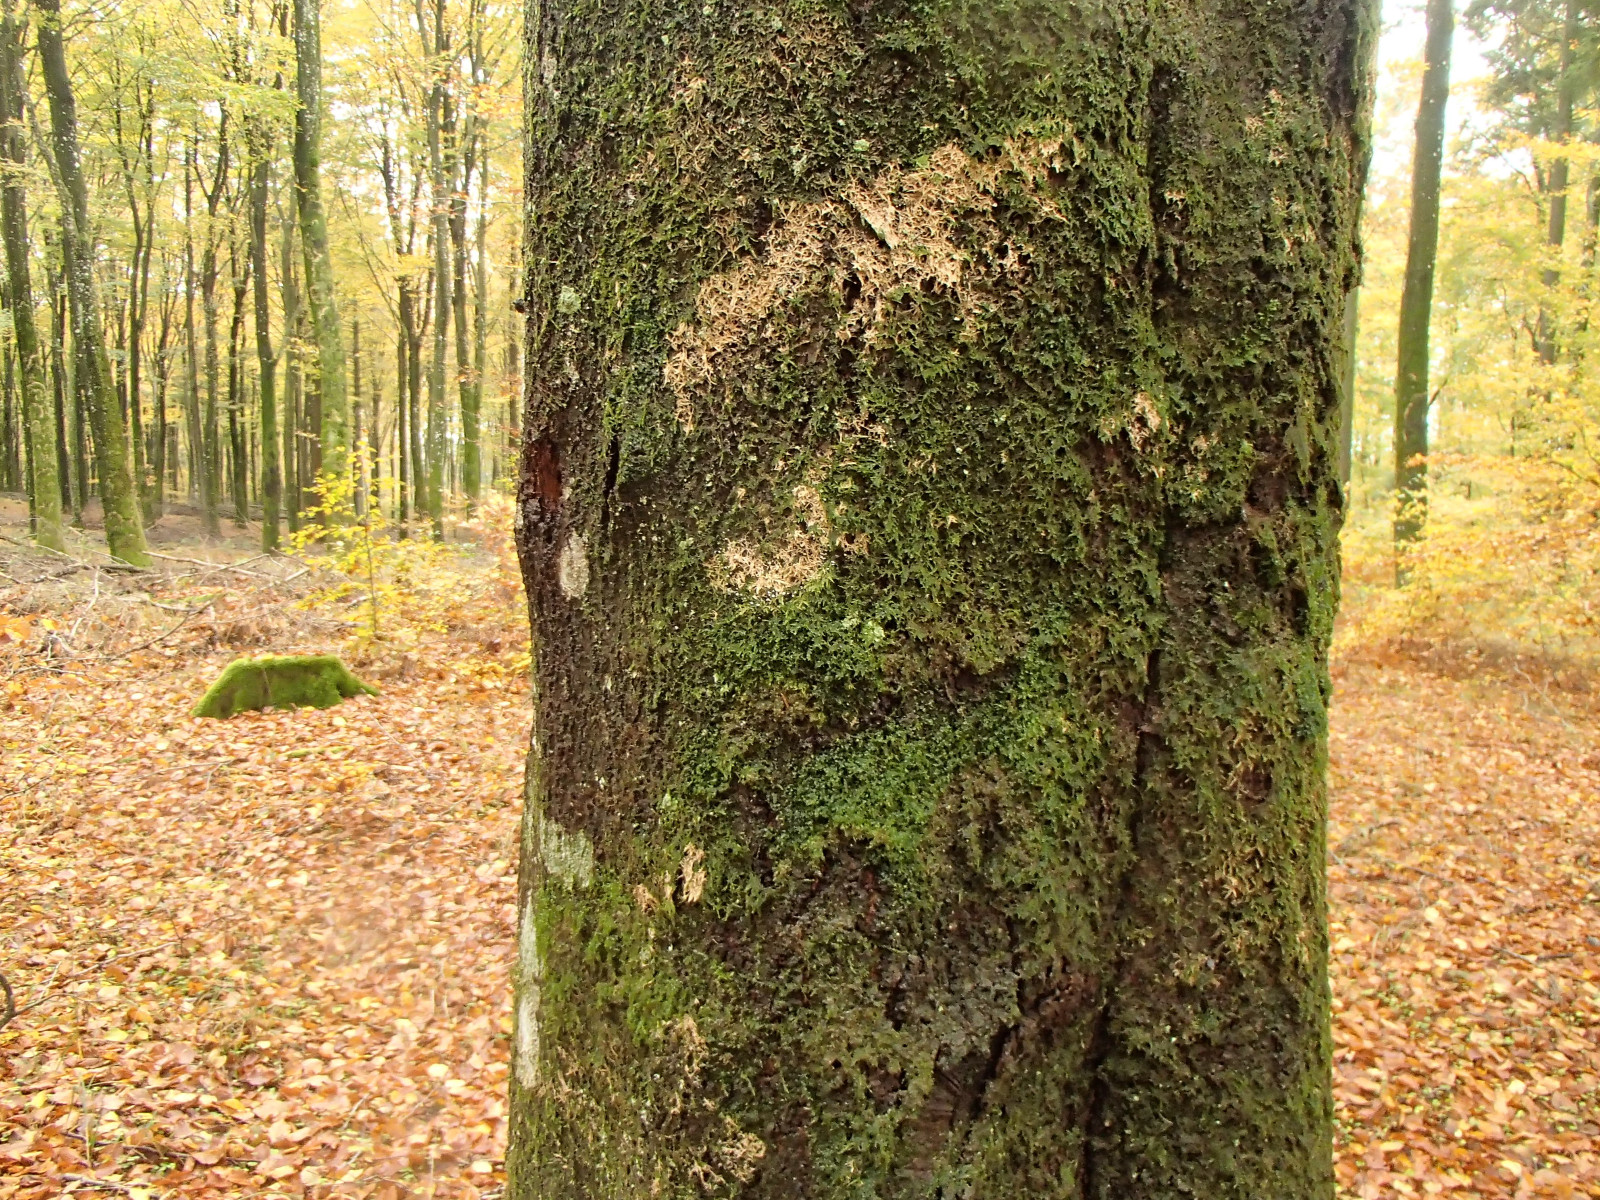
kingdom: Fungi
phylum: Basidiomycota
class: Agaricomycetes
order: Agaricales
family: Chromocyphellaceae
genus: Chromocyphella
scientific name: Chromocyphella muscicola
